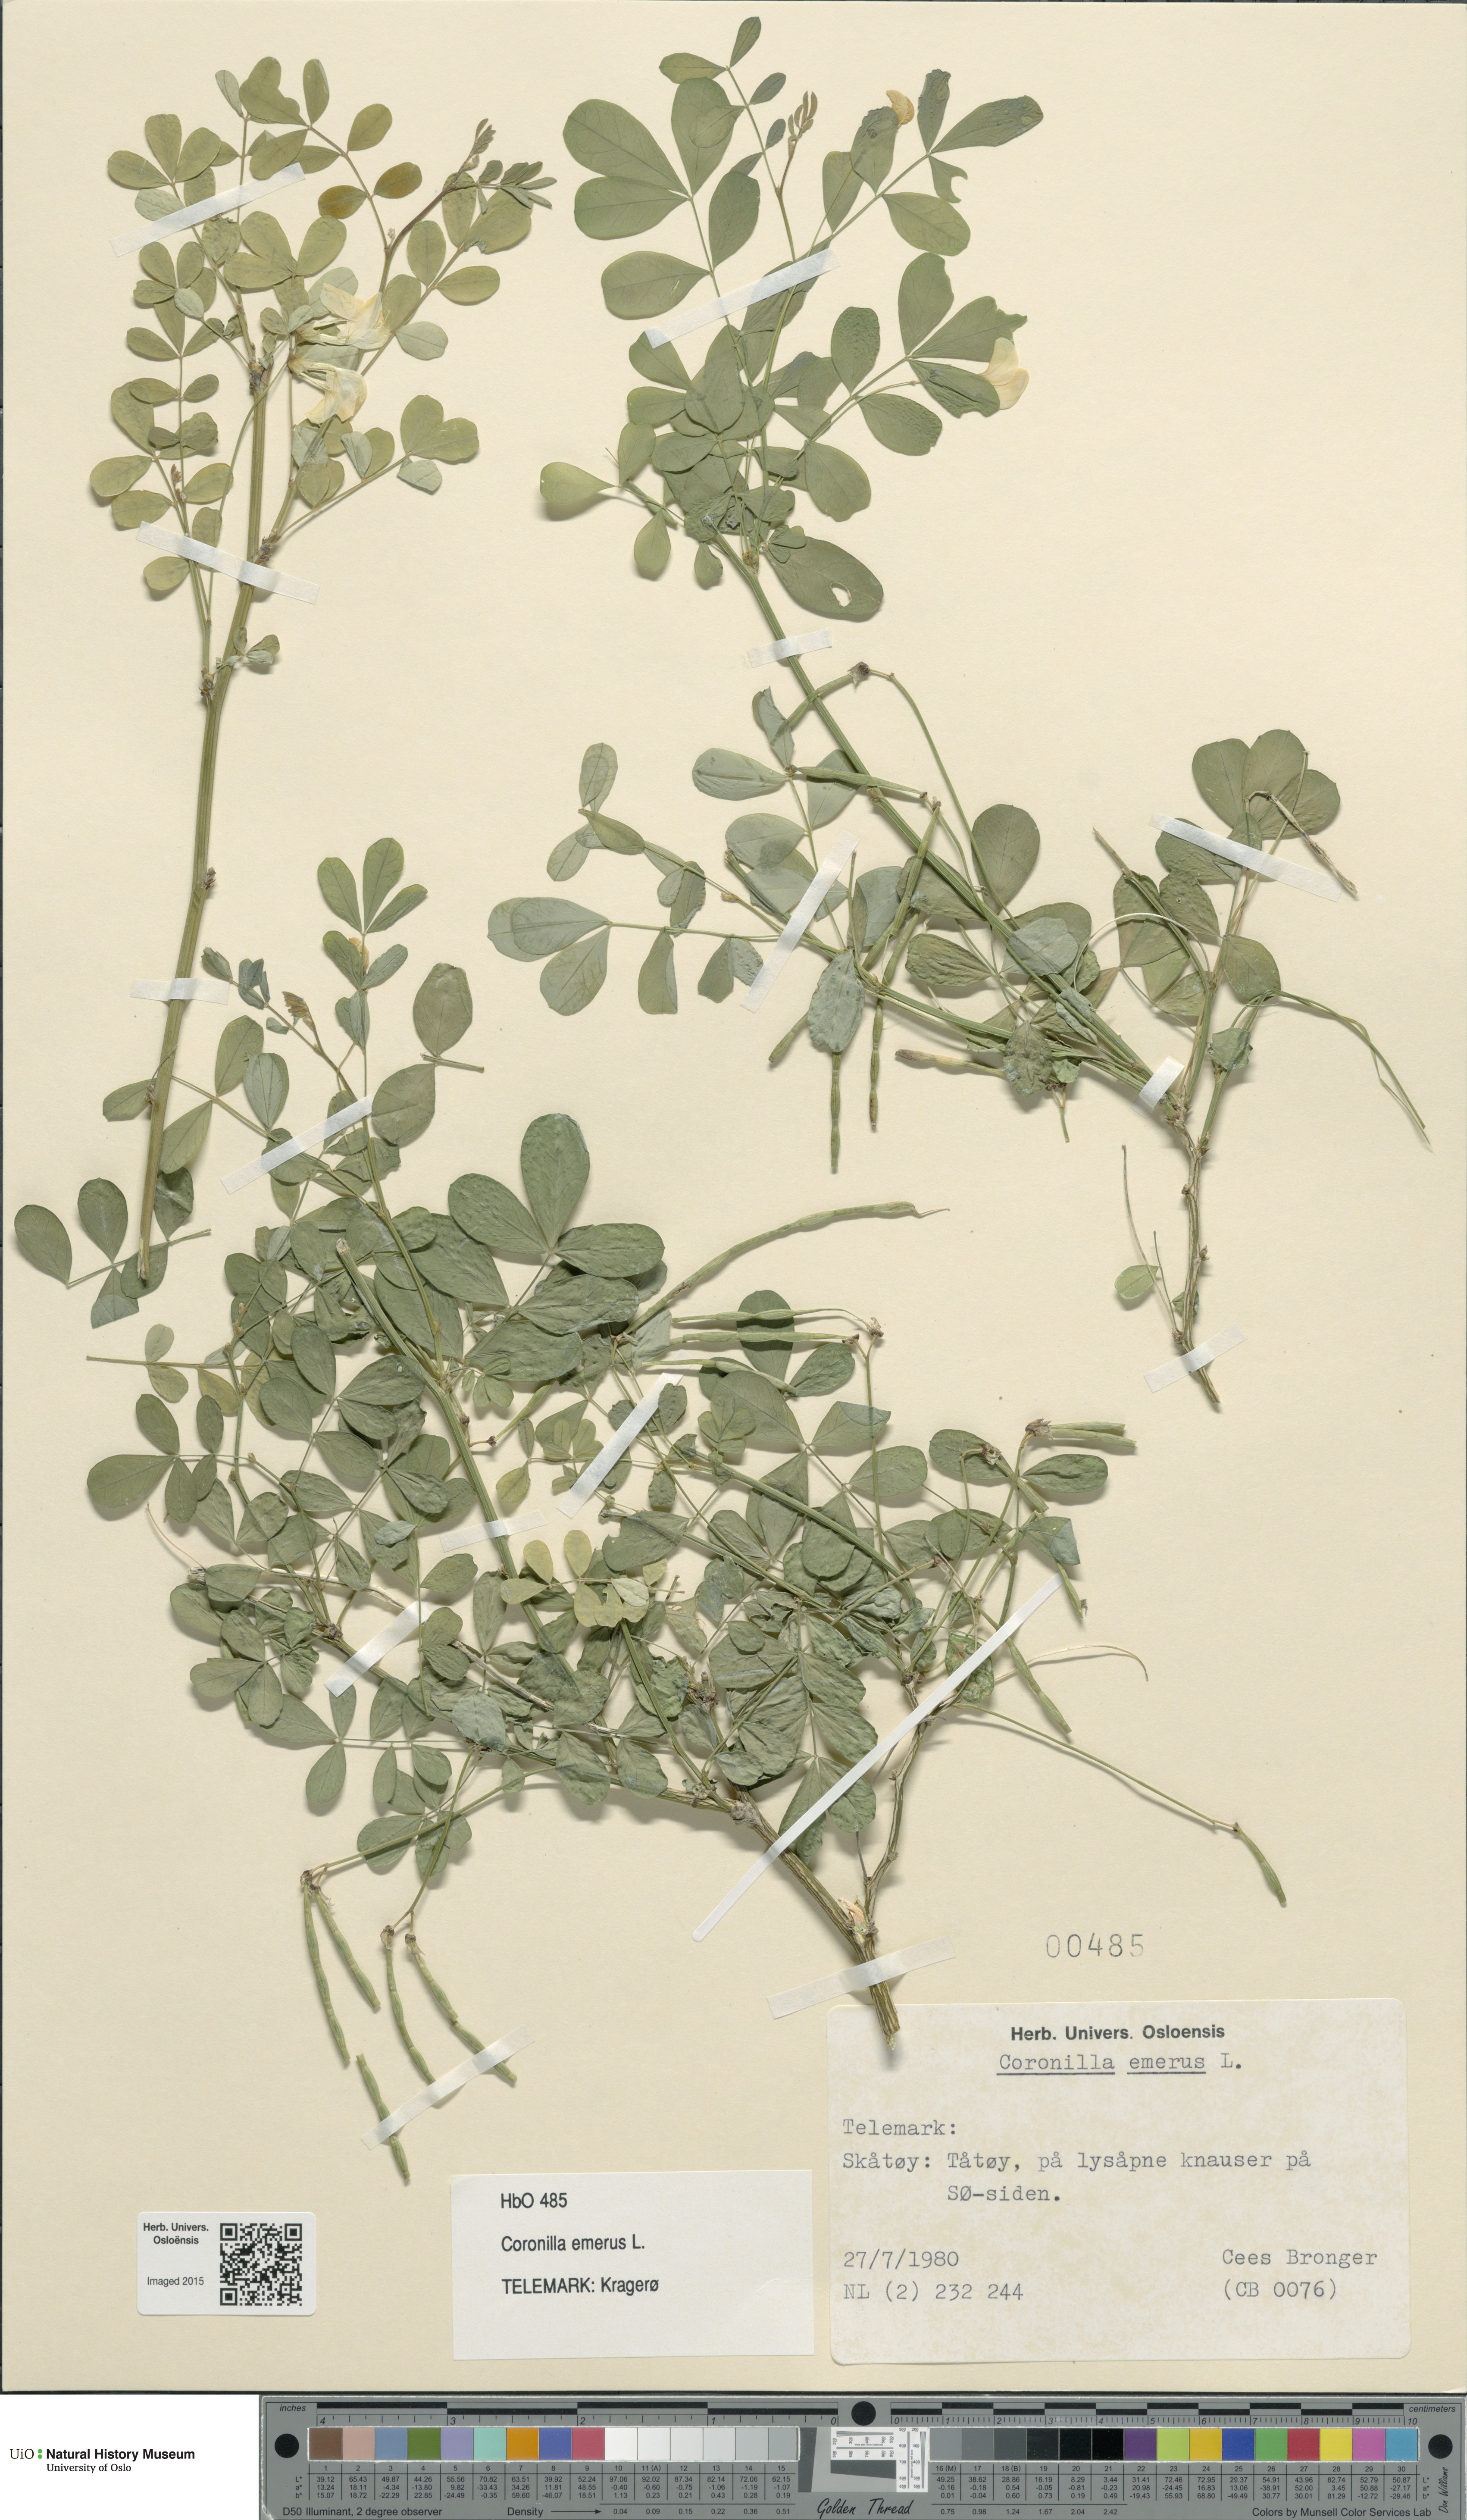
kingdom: Plantae
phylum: Tracheophyta
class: Magnoliopsida
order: Fabales
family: Fabaceae
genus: Hippocrepis
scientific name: Hippocrepis emerus
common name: Scorpion senna
